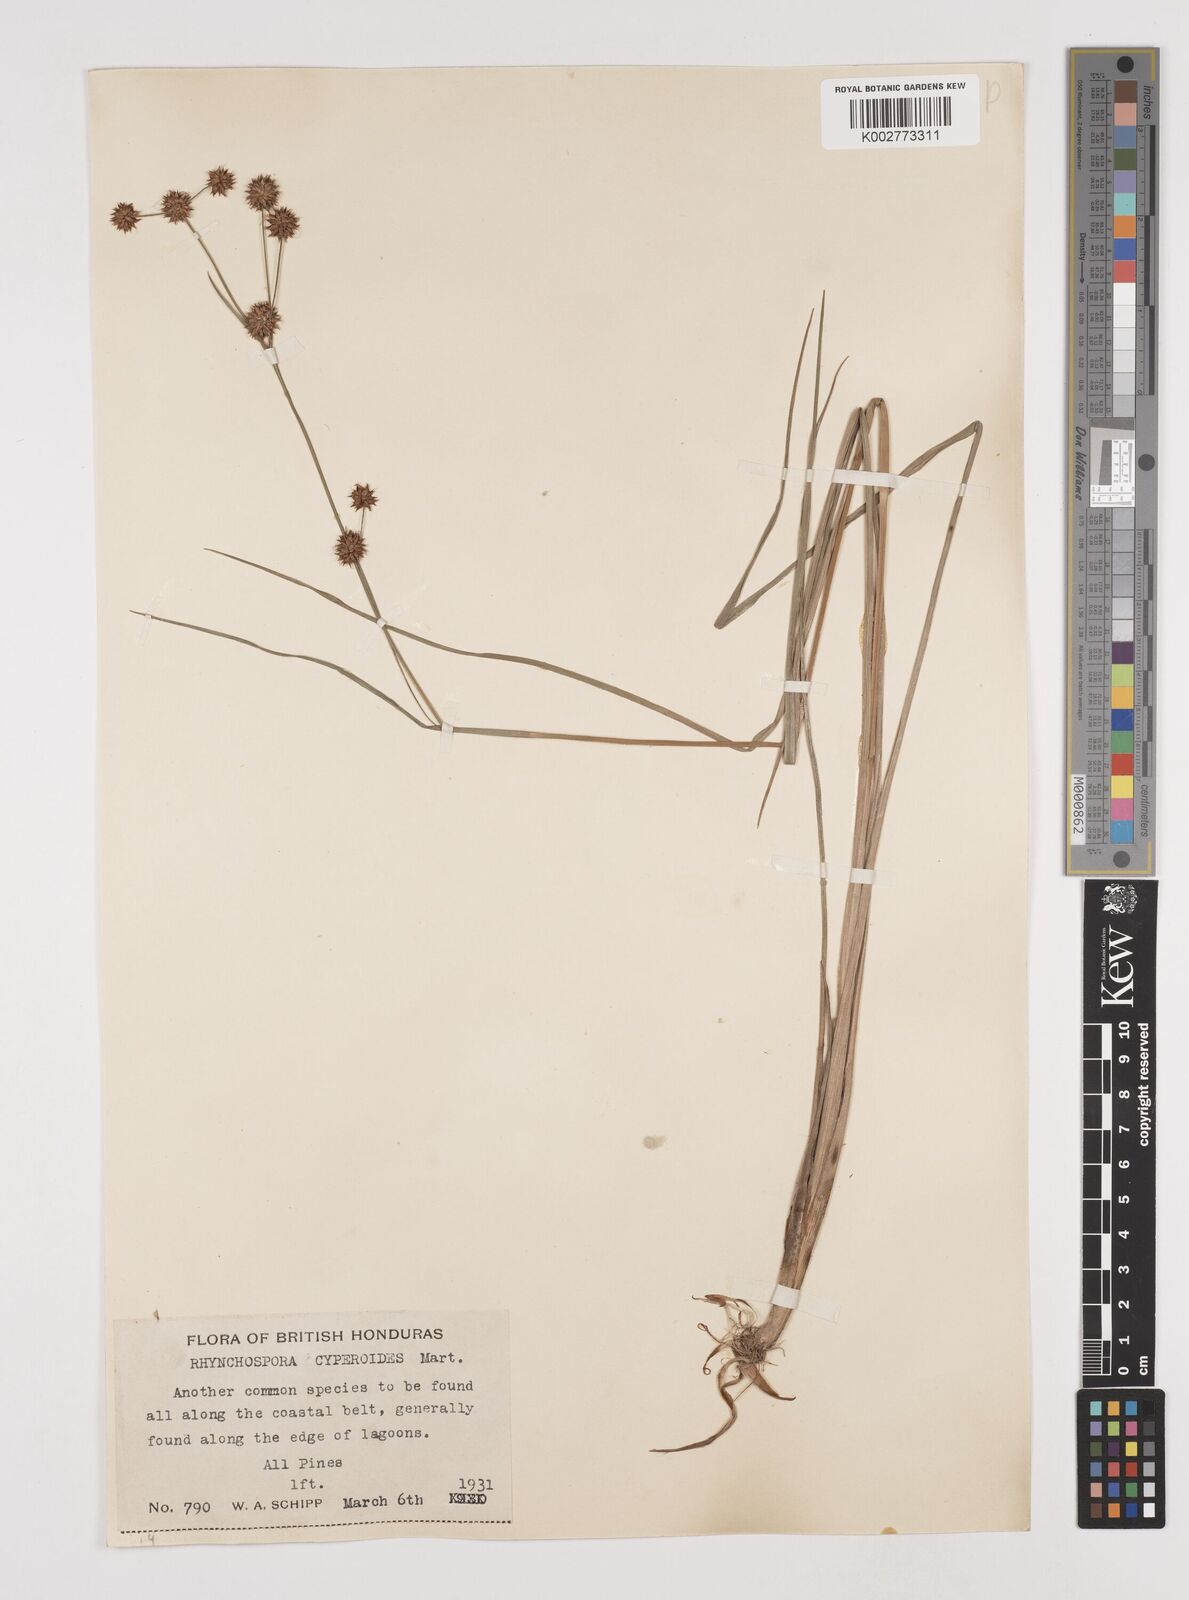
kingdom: Plantae
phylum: Tracheophyta
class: Liliopsida
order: Poales
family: Cyperaceae
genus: Rhynchospora
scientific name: Rhynchospora holoschoenoides
